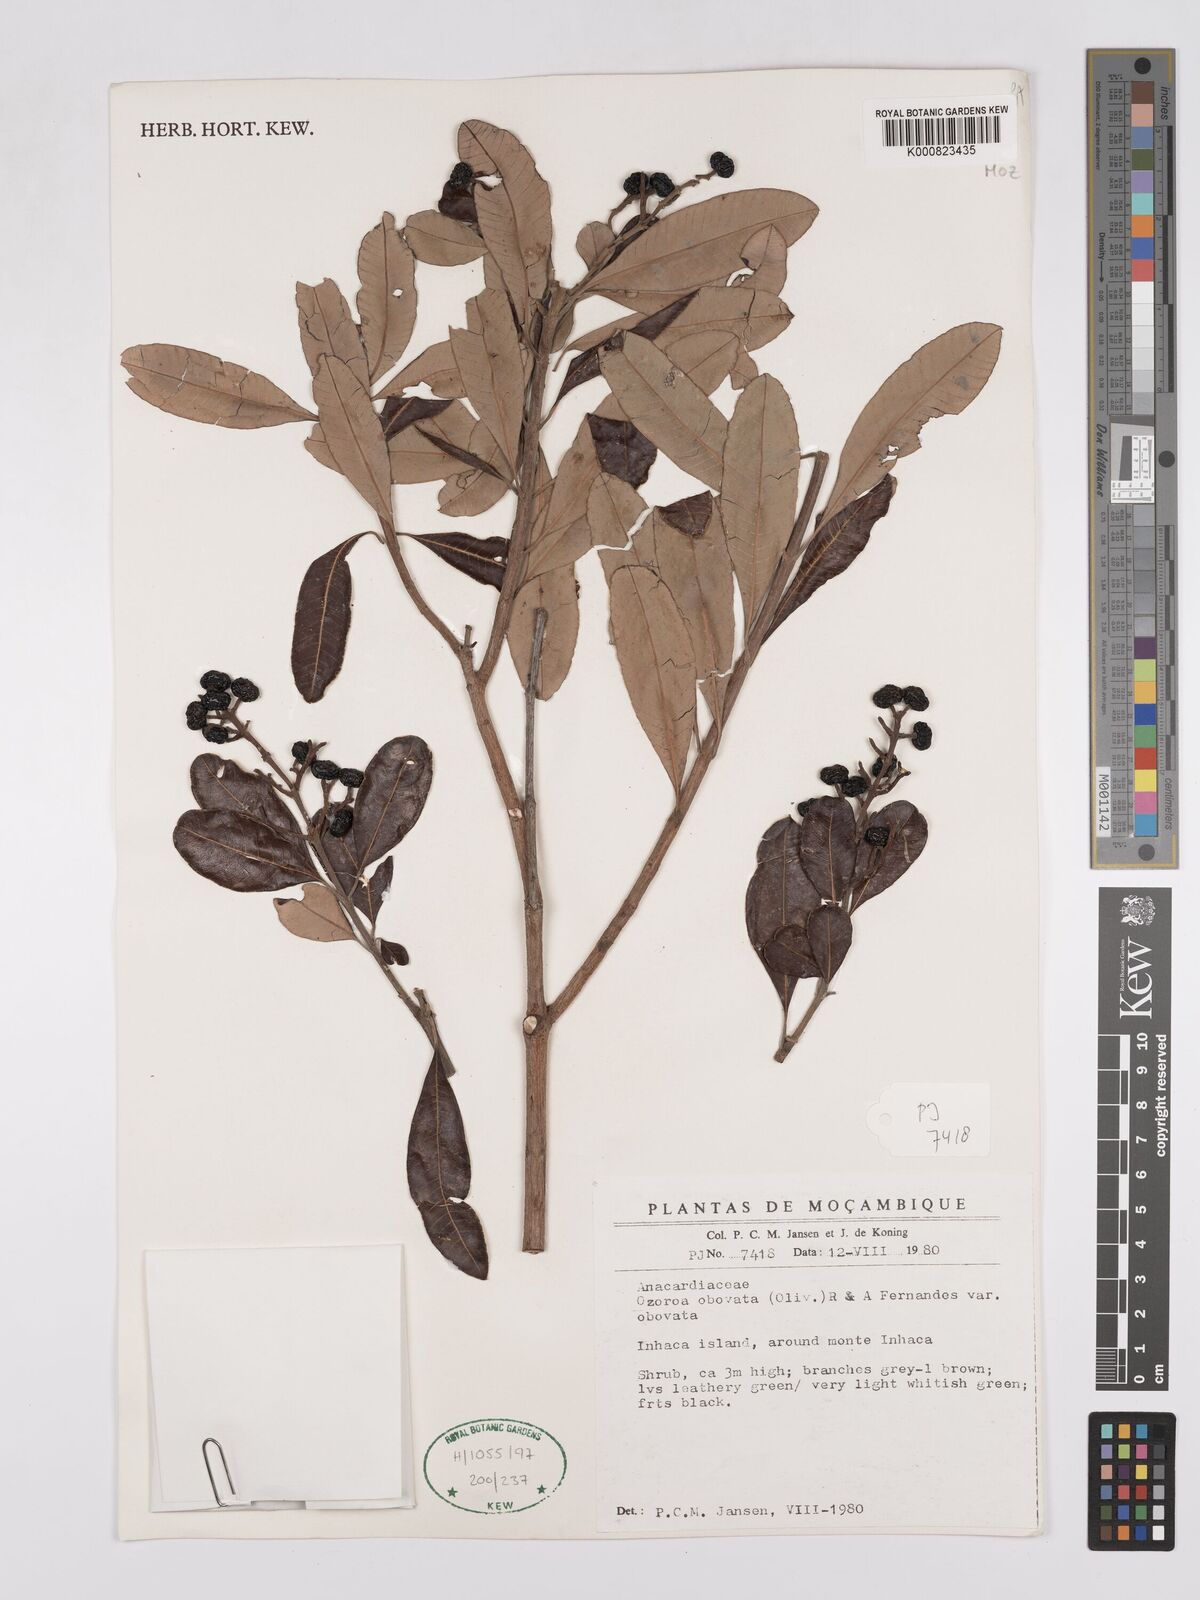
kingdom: Plantae
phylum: Tracheophyta
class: Magnoliopsida
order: Sapindales
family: Anacardiaceae
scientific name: Anacardiaceae
